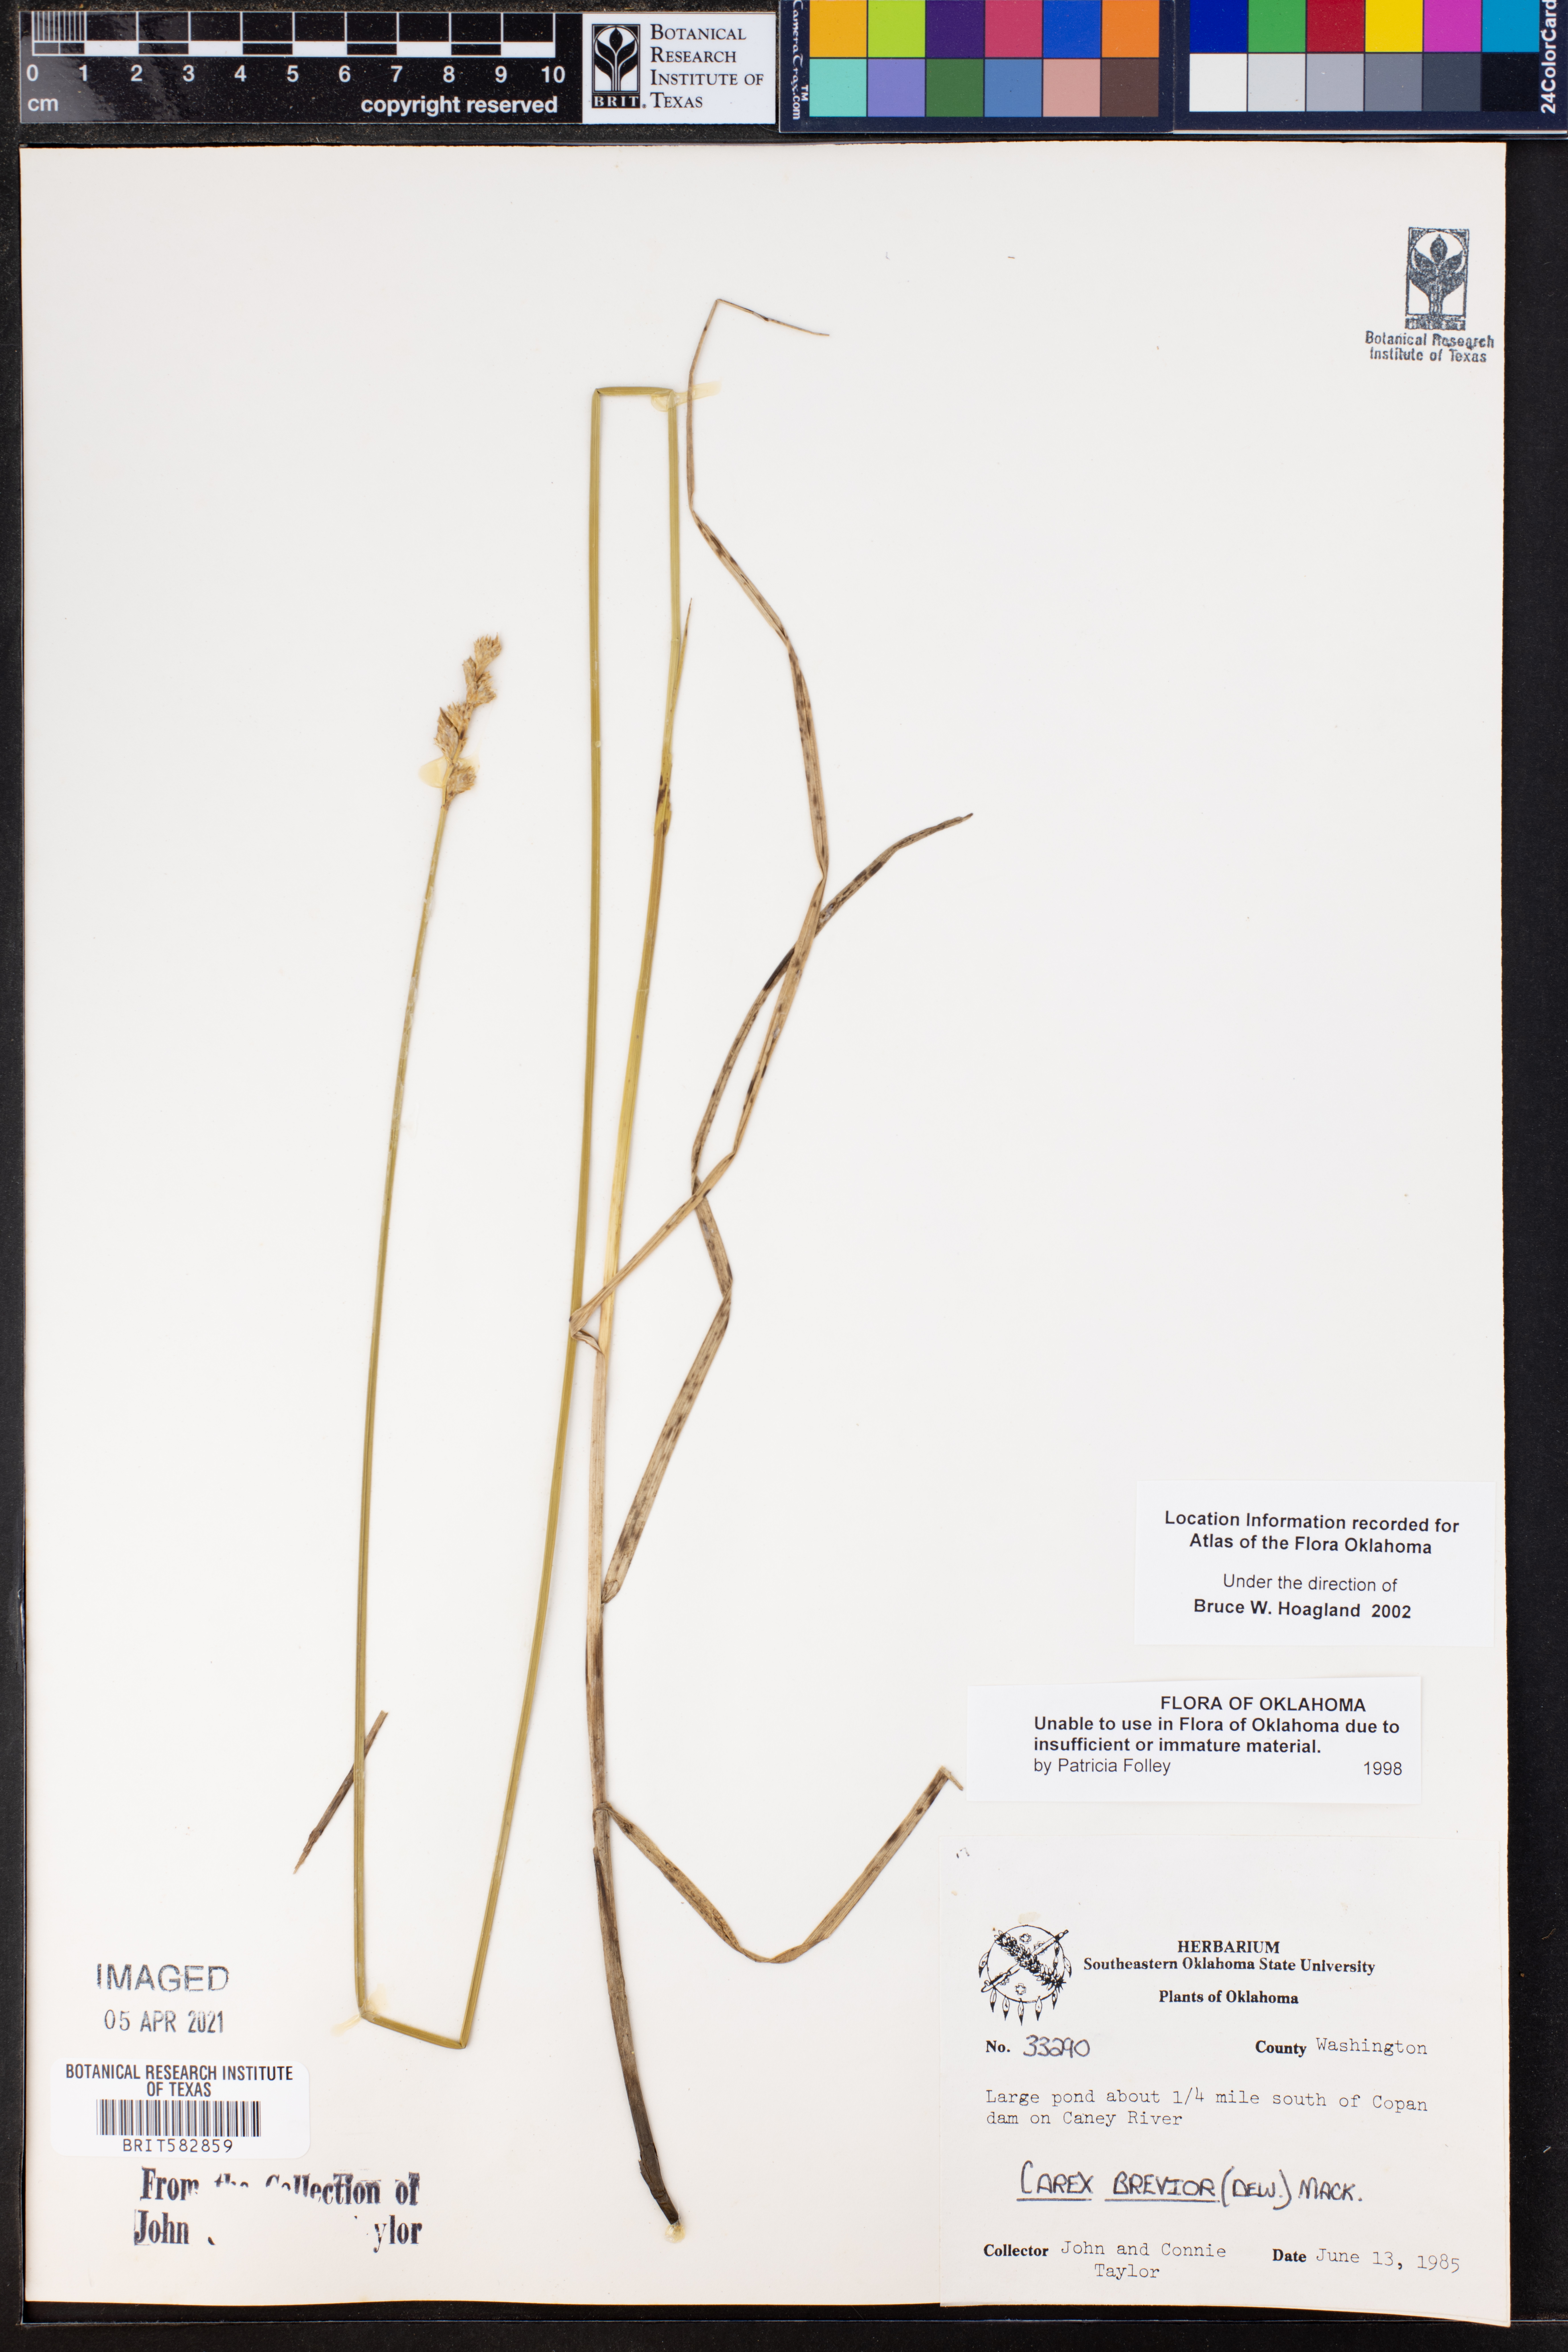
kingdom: Plantae
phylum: Tracheophyta
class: Liliopsida
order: Poales
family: Cyperaceae
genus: Carex
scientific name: Carex brevior
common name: Brevior sedge
